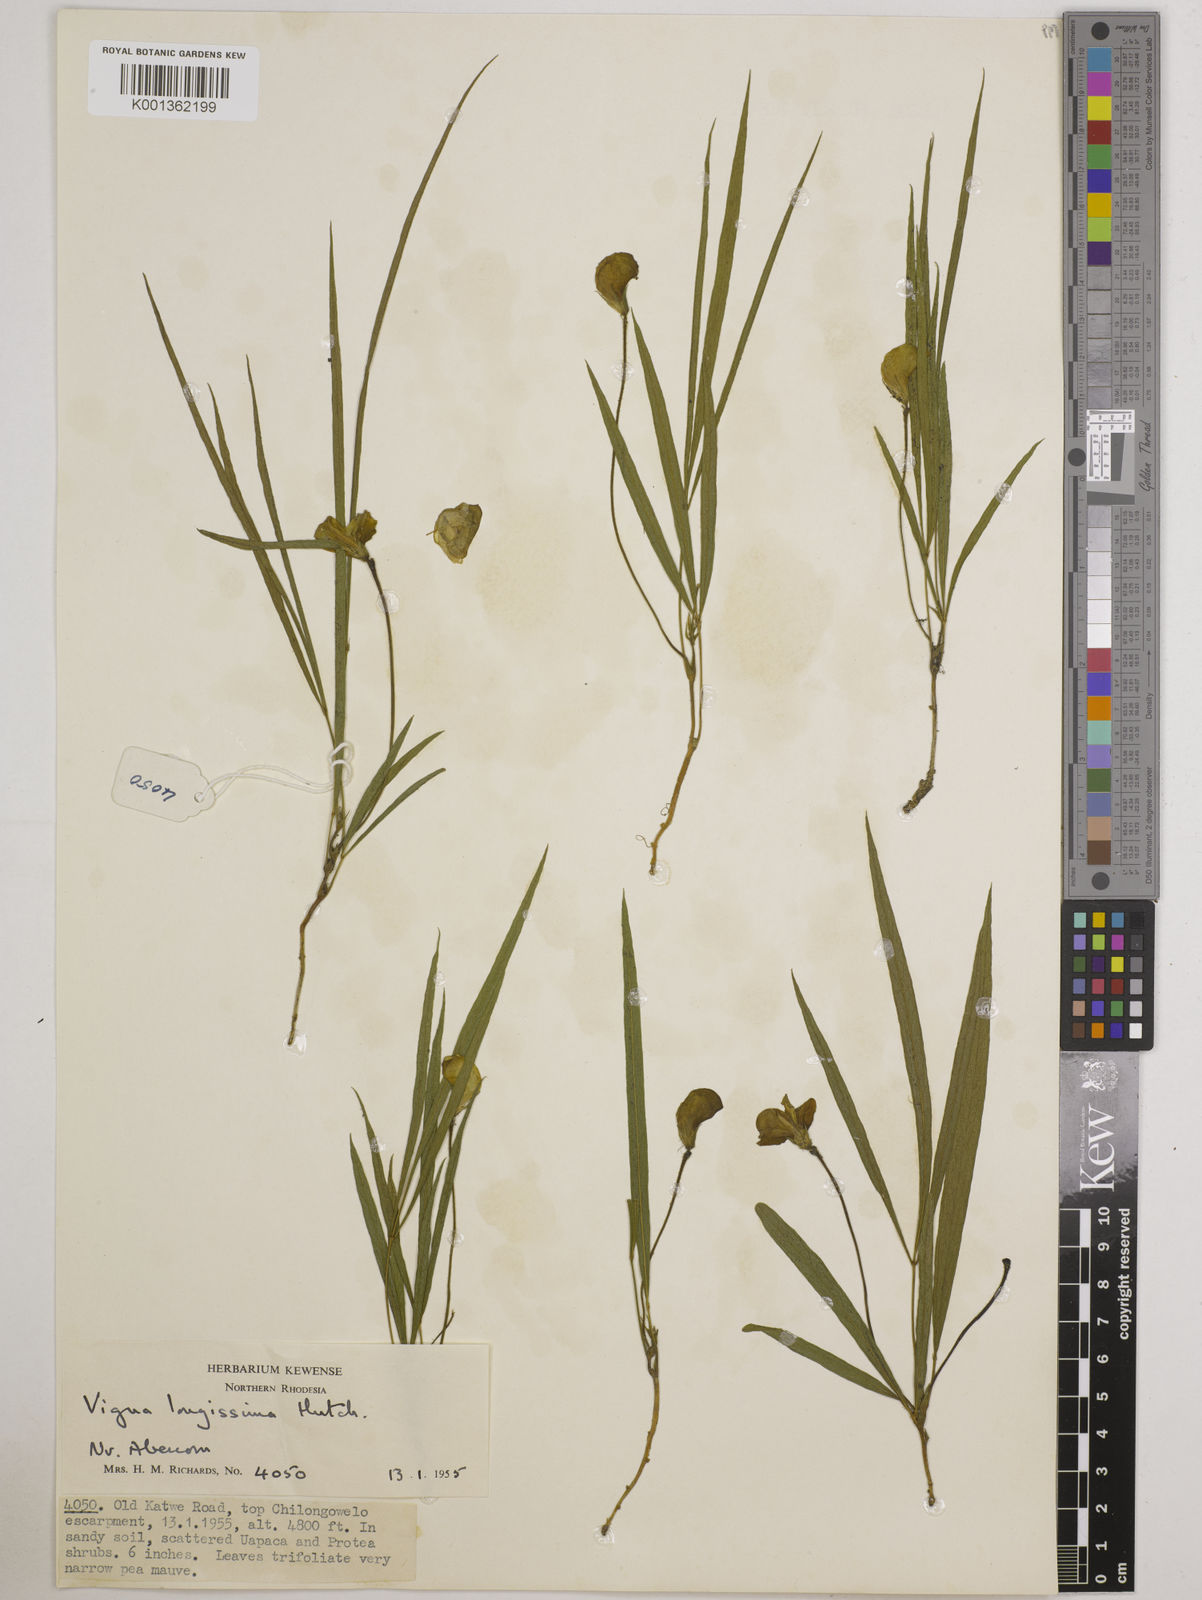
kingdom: Plantae
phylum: Tracheophyta
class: Magnoliopsida
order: Fabales
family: Fabaceae
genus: Vigna
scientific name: Vigna longissima
